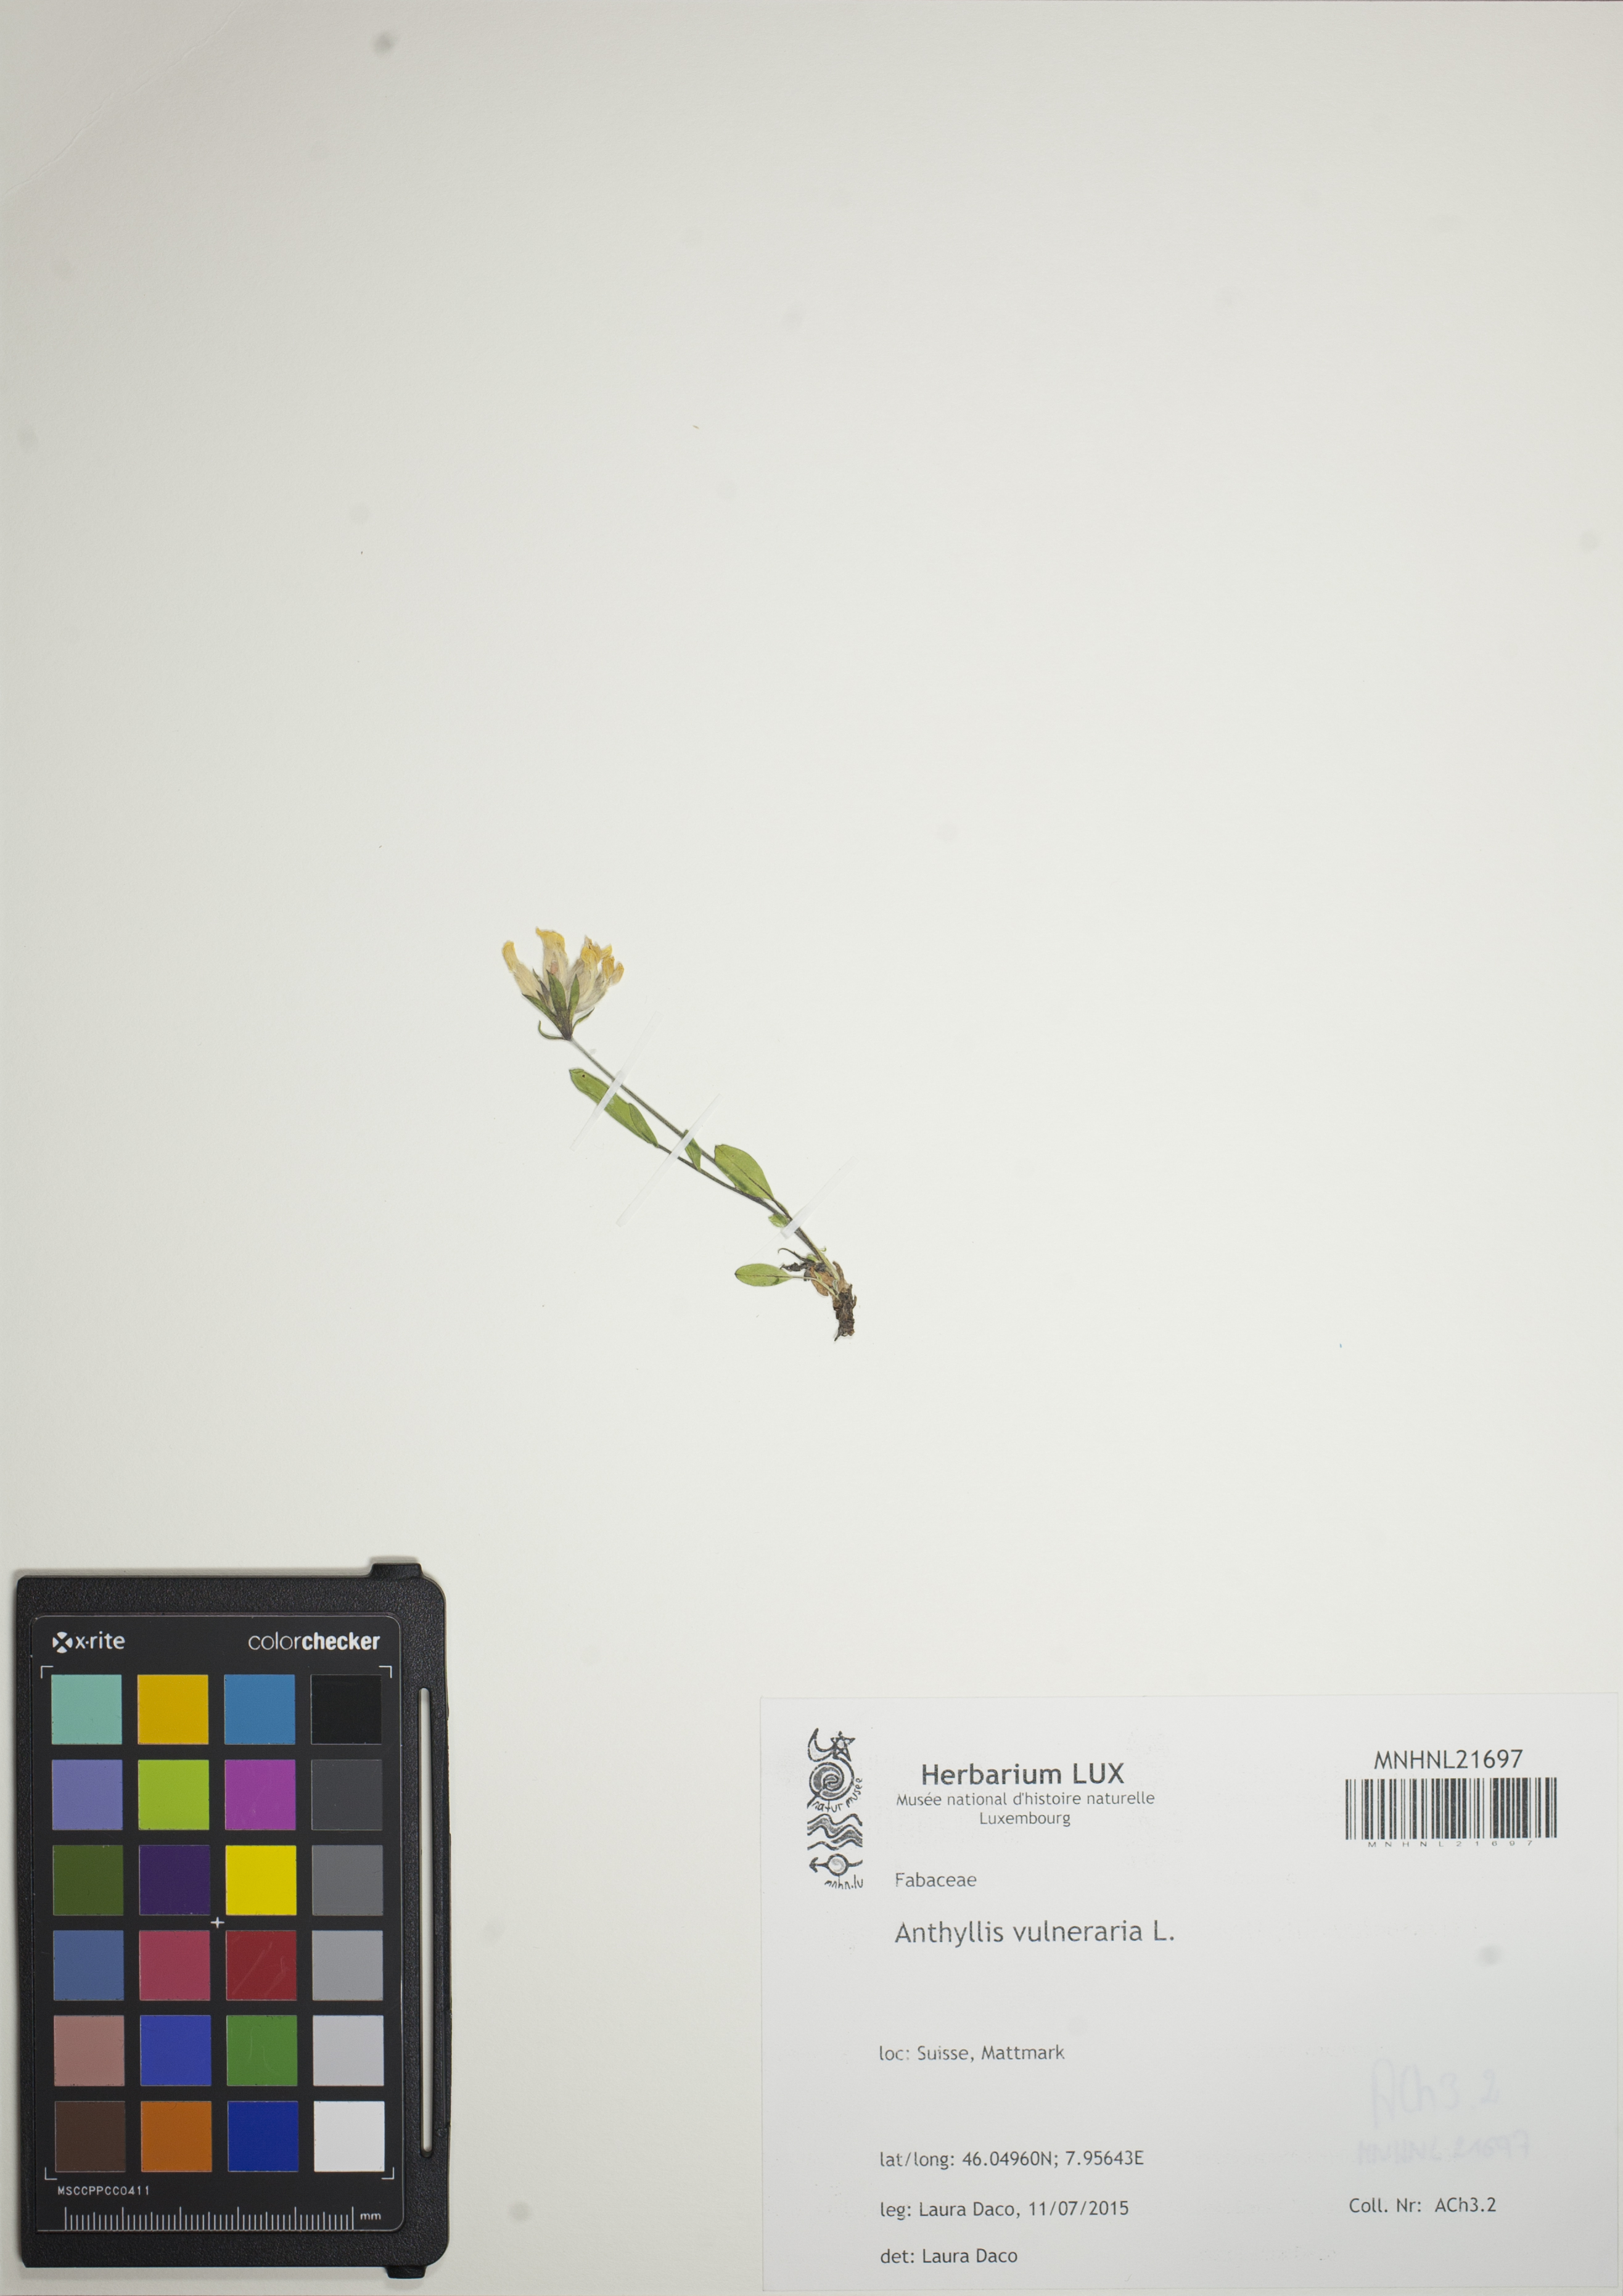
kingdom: Plantae
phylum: Tracheophyta
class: Magnoliopsida
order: Fabales
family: Fabaceae
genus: Anthyllis
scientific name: Anthyllis vulneraria
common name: Kidney vetch
